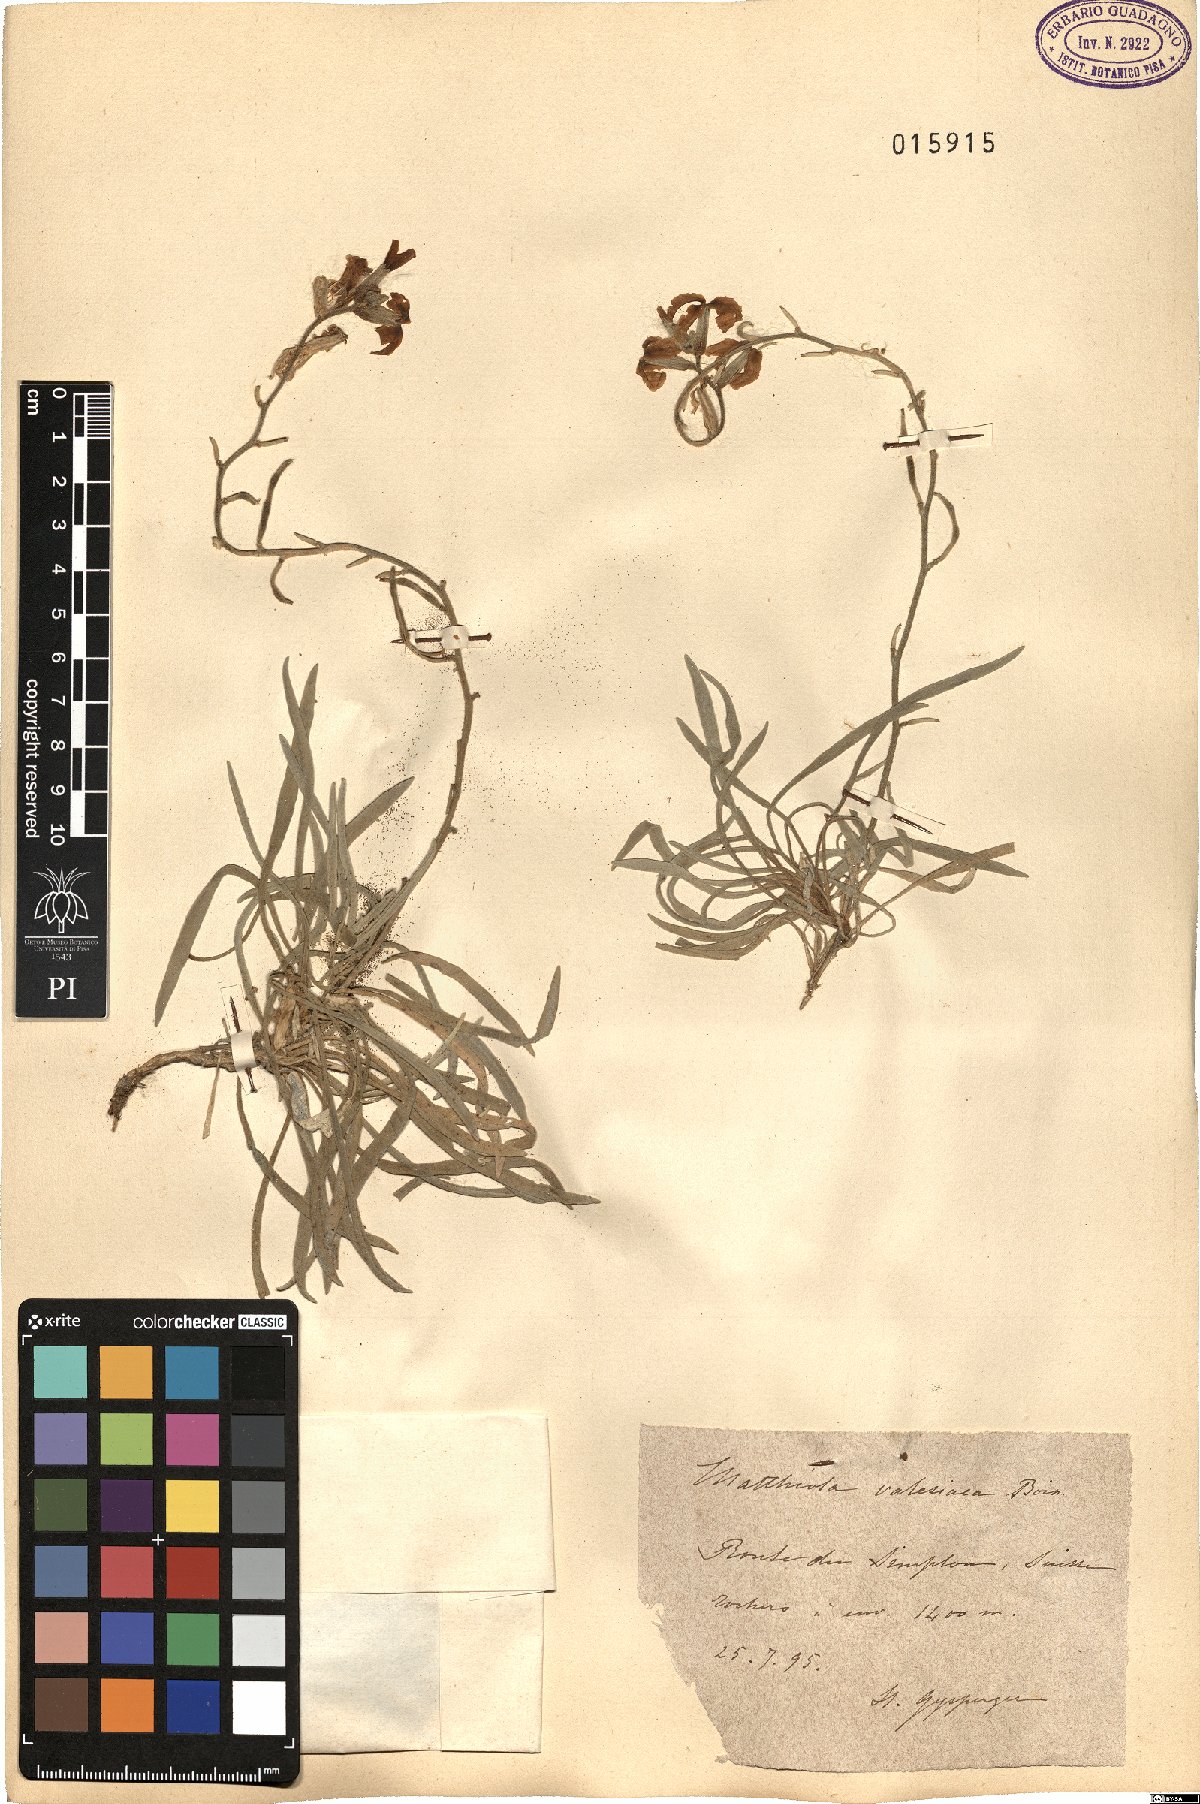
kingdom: Plantae
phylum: Tracheophyta
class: Magnoliopsida
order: Brassicales
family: Brassicaceae
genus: Matthiola
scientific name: Matthiola fruticulosa
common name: Sad stock
